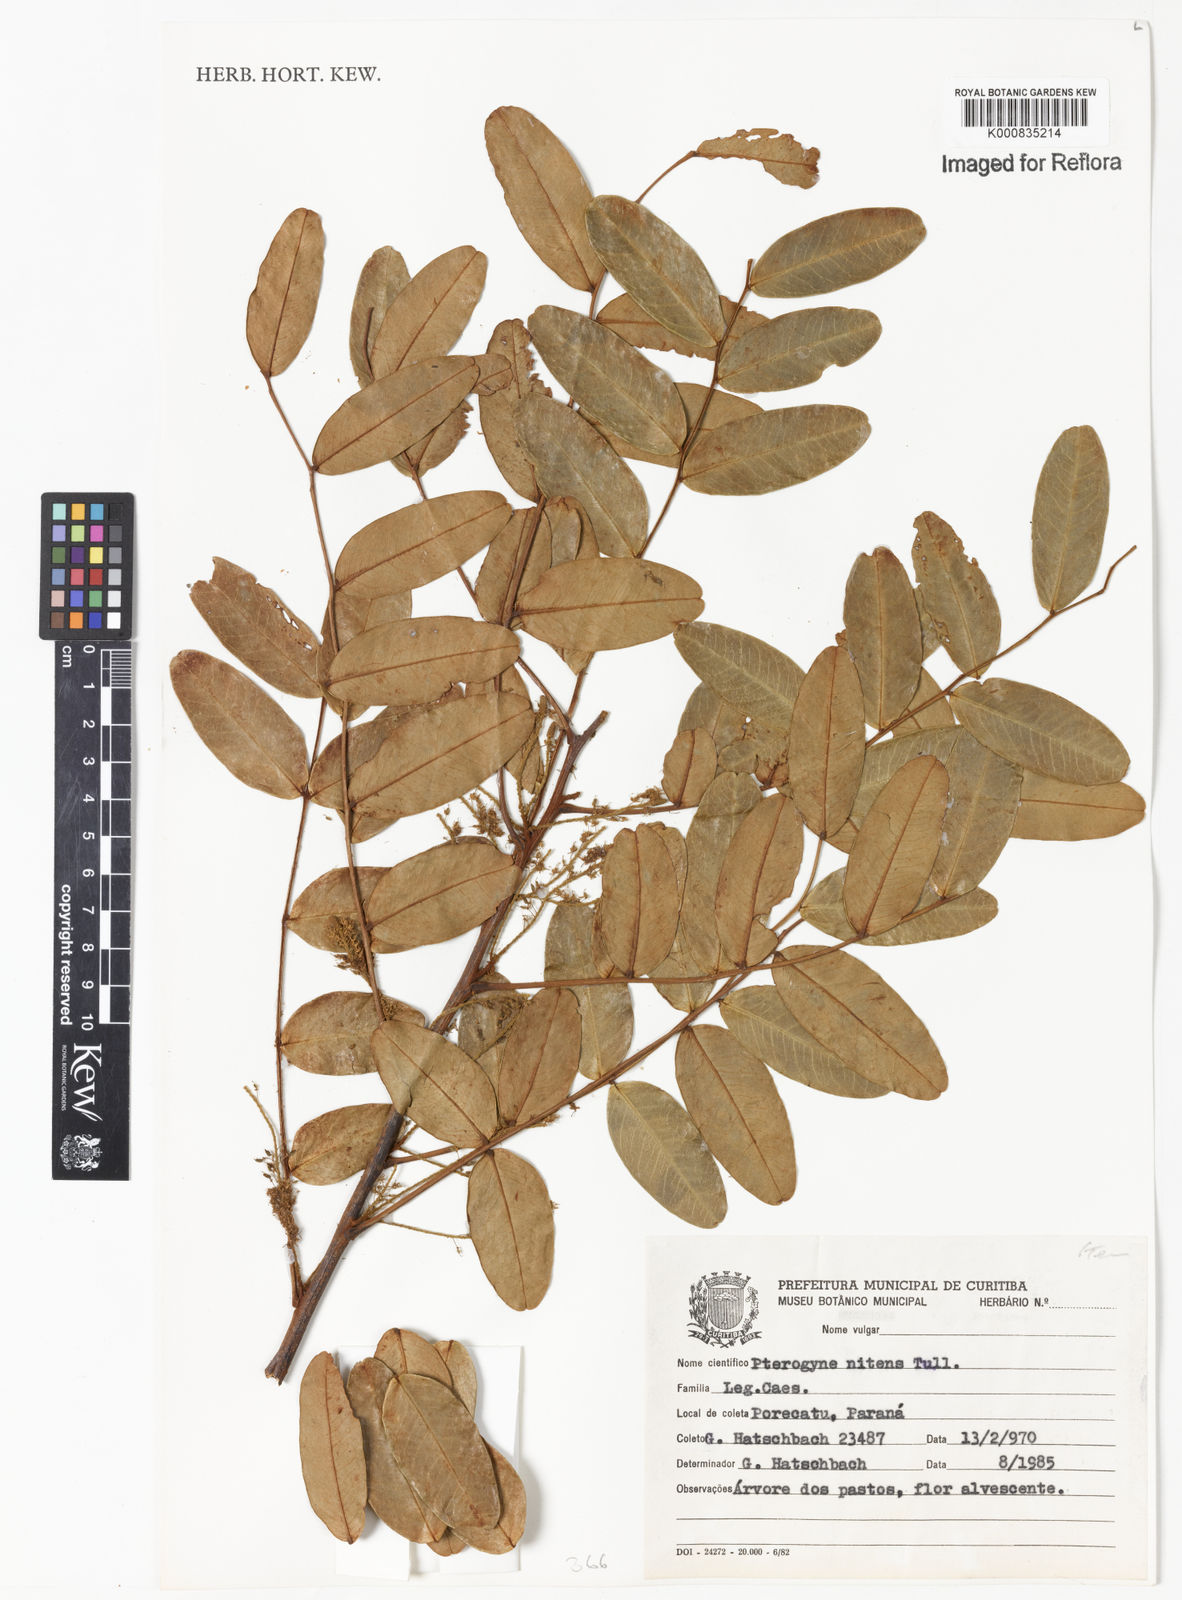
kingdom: Plantae
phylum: Tracheophyta
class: Magnoliopsida
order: Fabales
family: Fabaceae
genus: Pterogyne
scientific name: Pterogyne nitens
